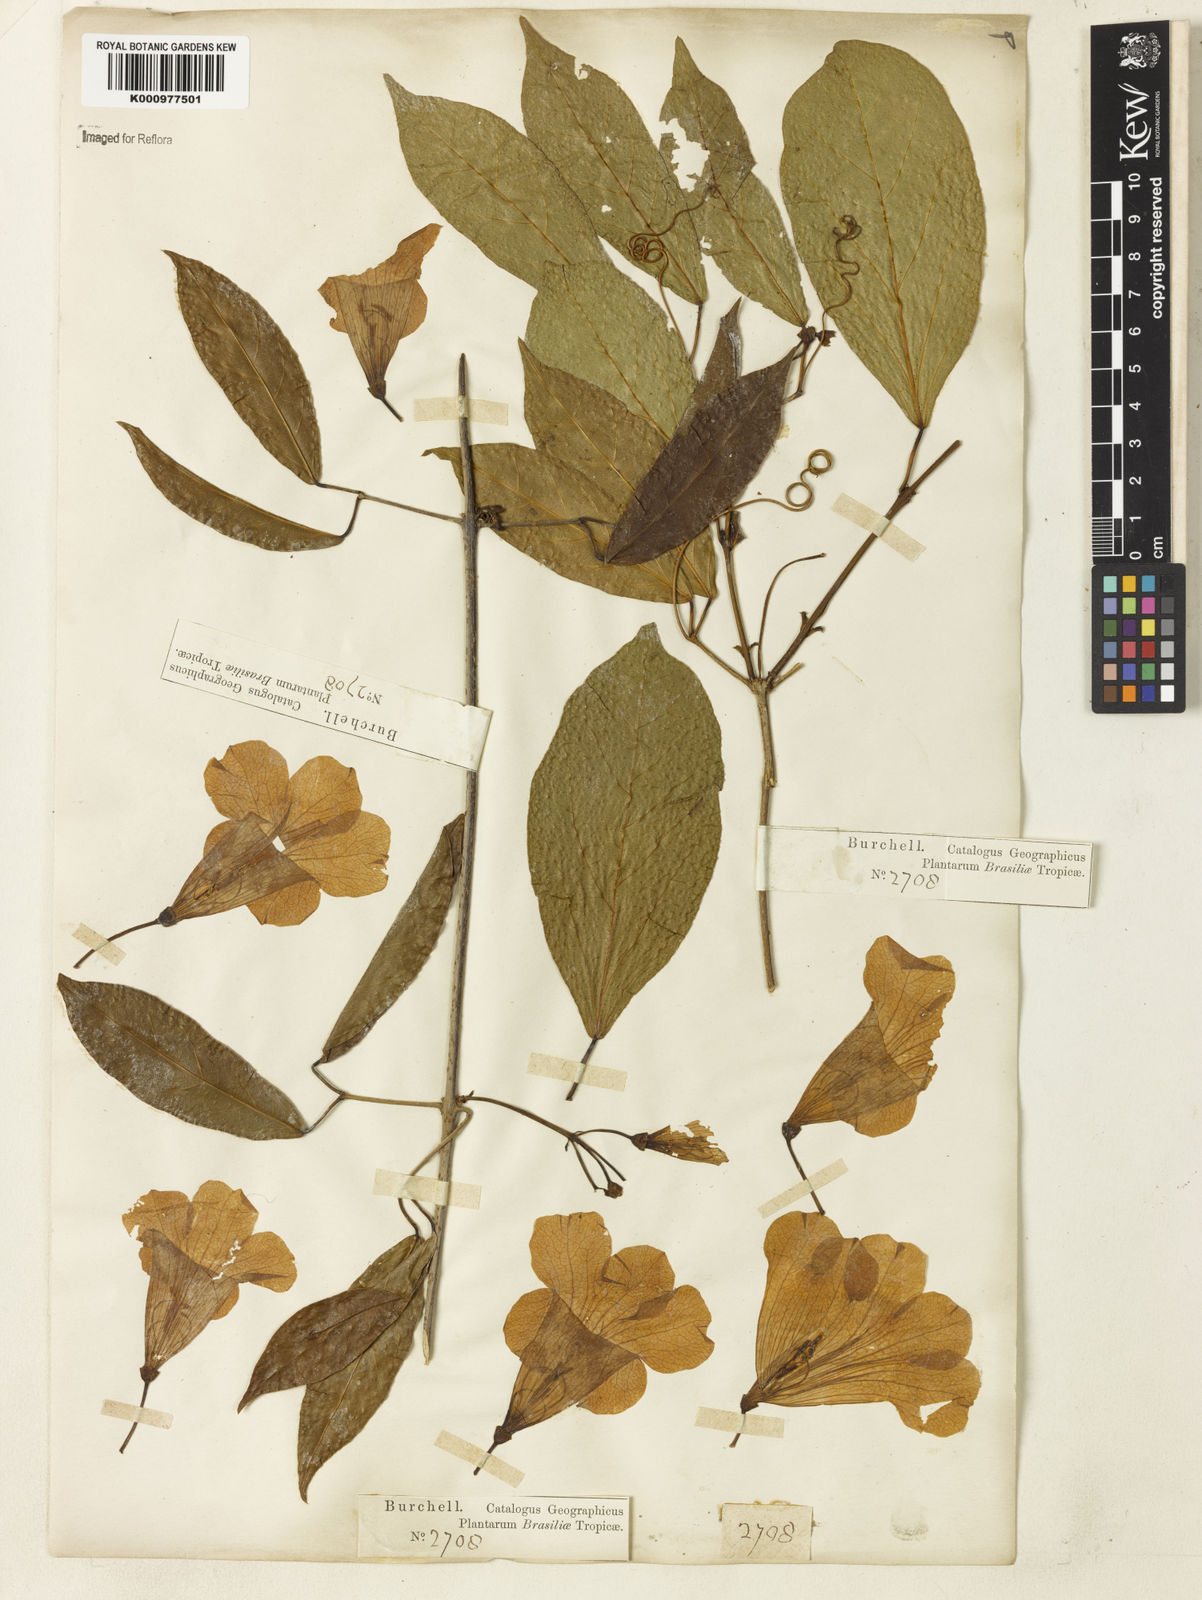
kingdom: Plantae
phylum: Tracheophyta
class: Magnoliopsida
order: Lamiales
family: Bignoniaceae
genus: Bignonia
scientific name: Bignonia binata
